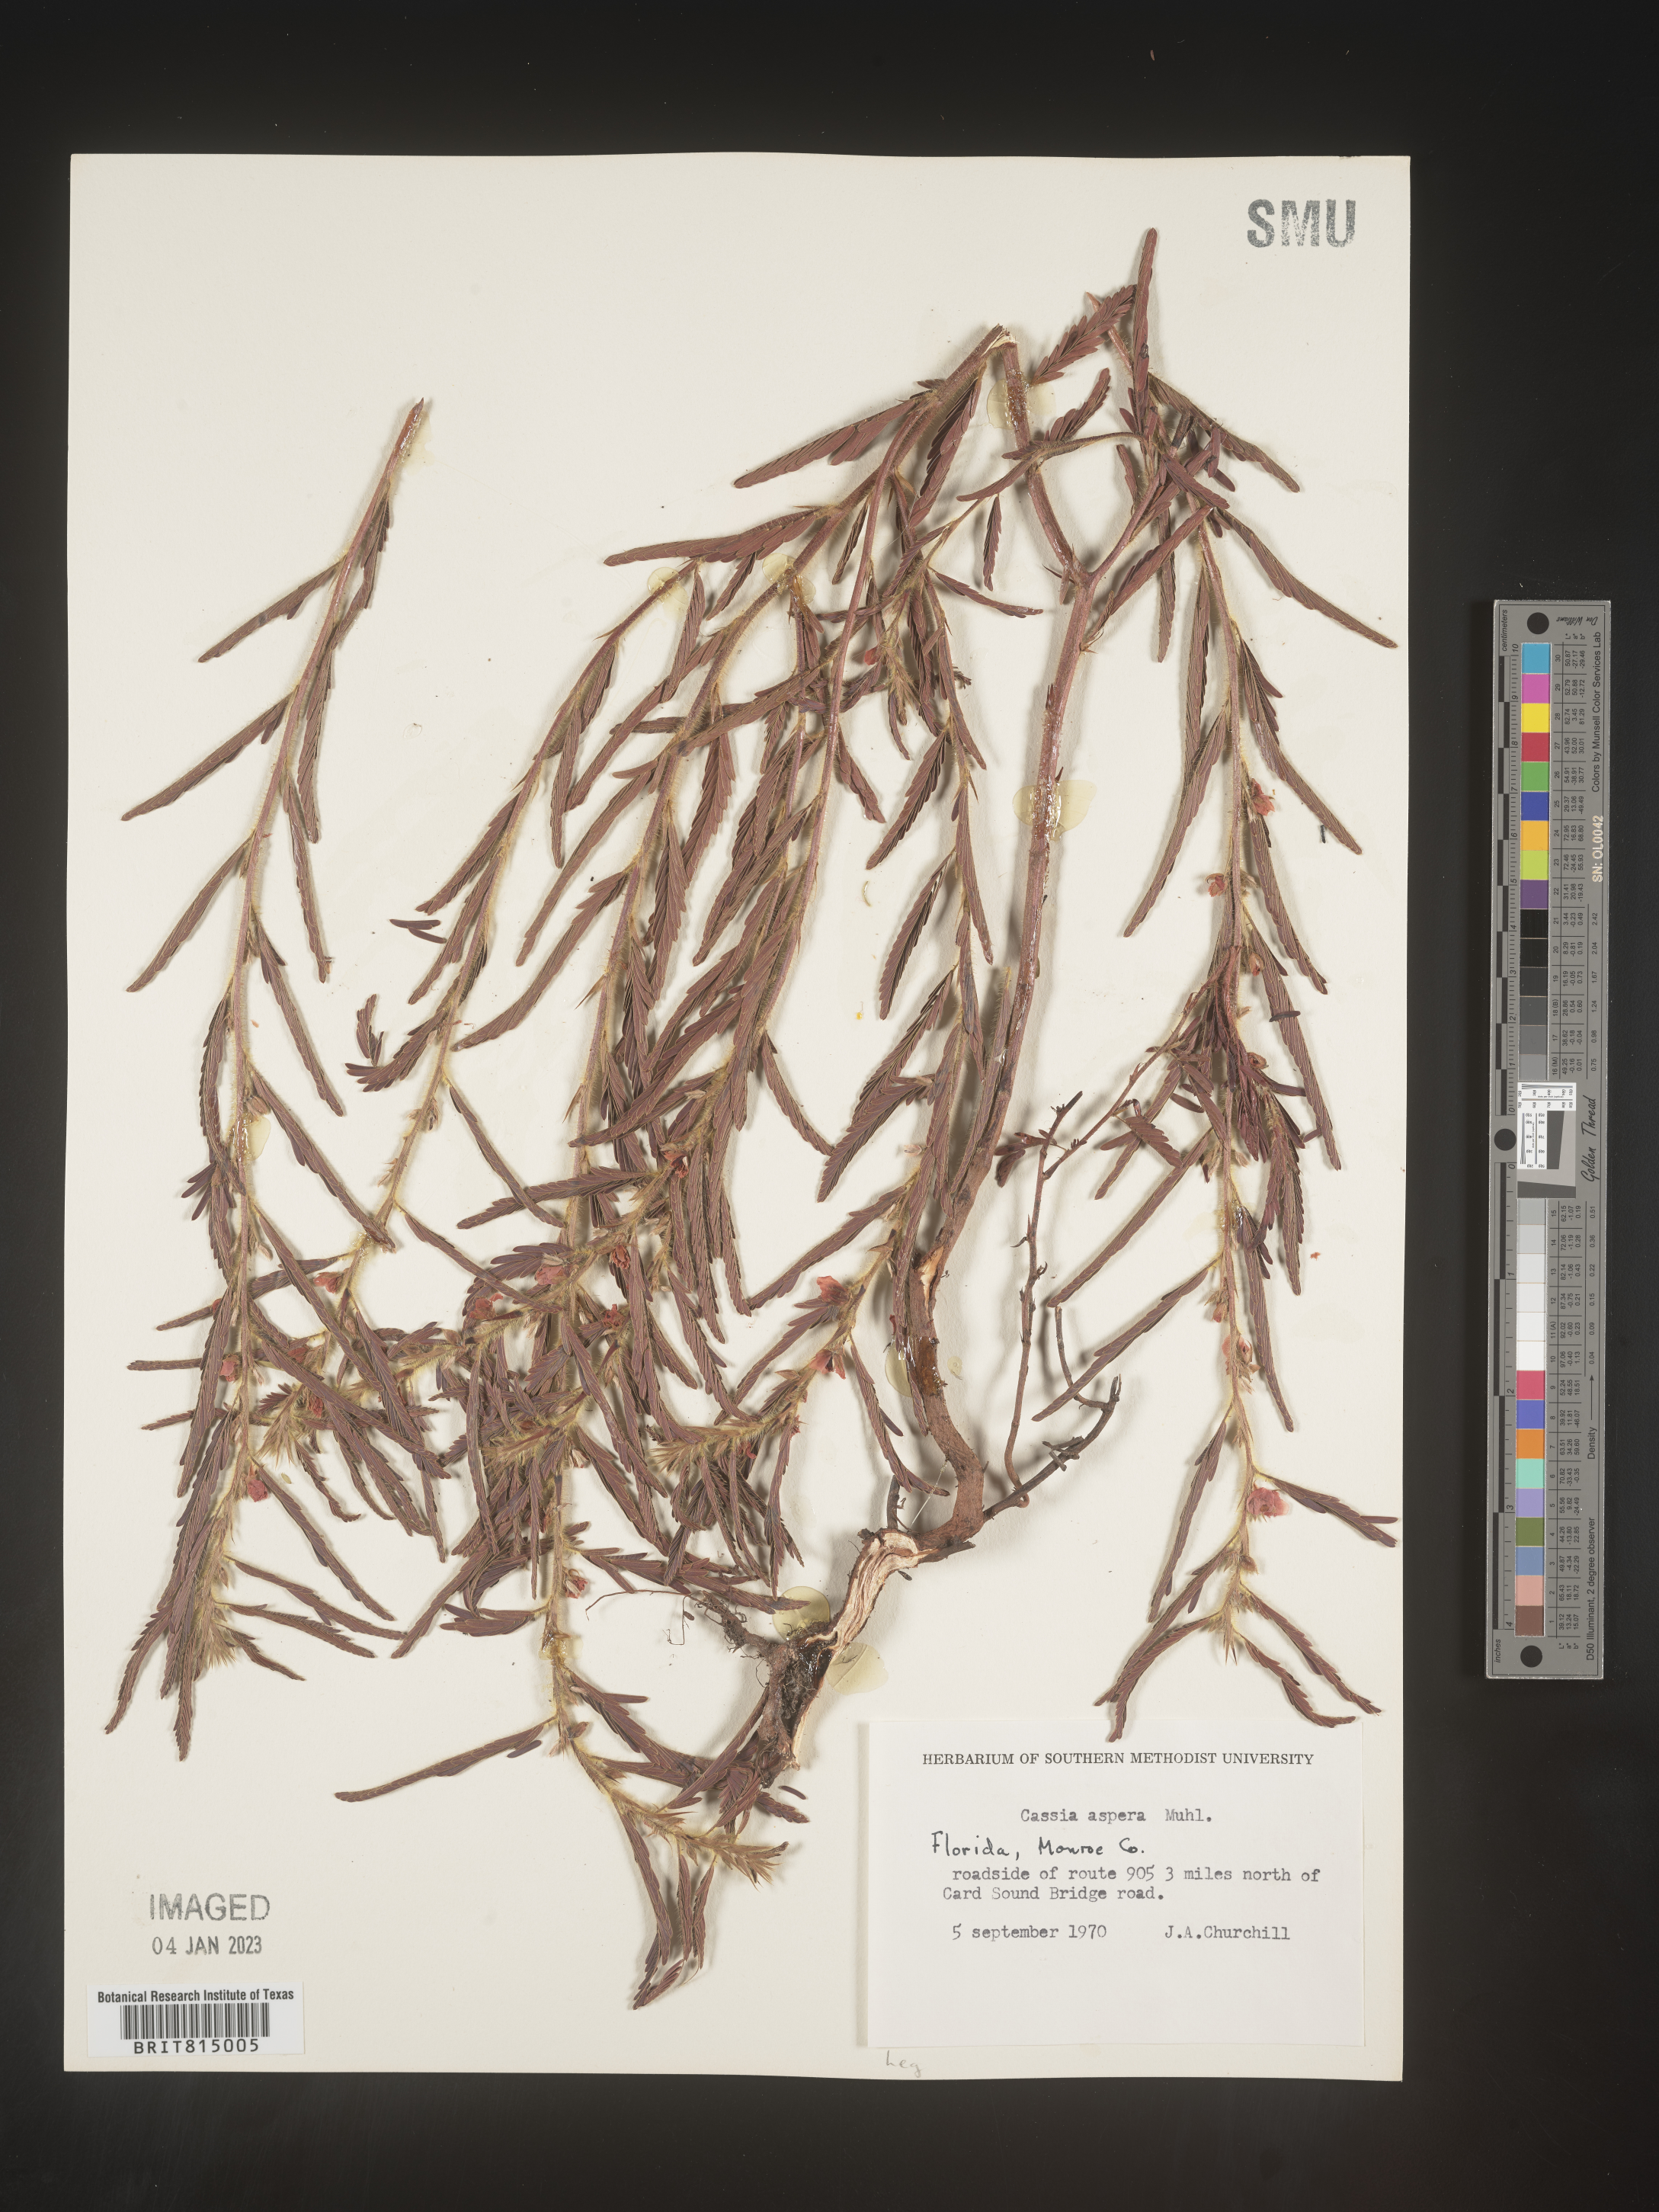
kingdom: Plantae
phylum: Tracheophyta
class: Magnoliopsida
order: Fabales
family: Fabaceae
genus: Cassia
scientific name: Cassia
